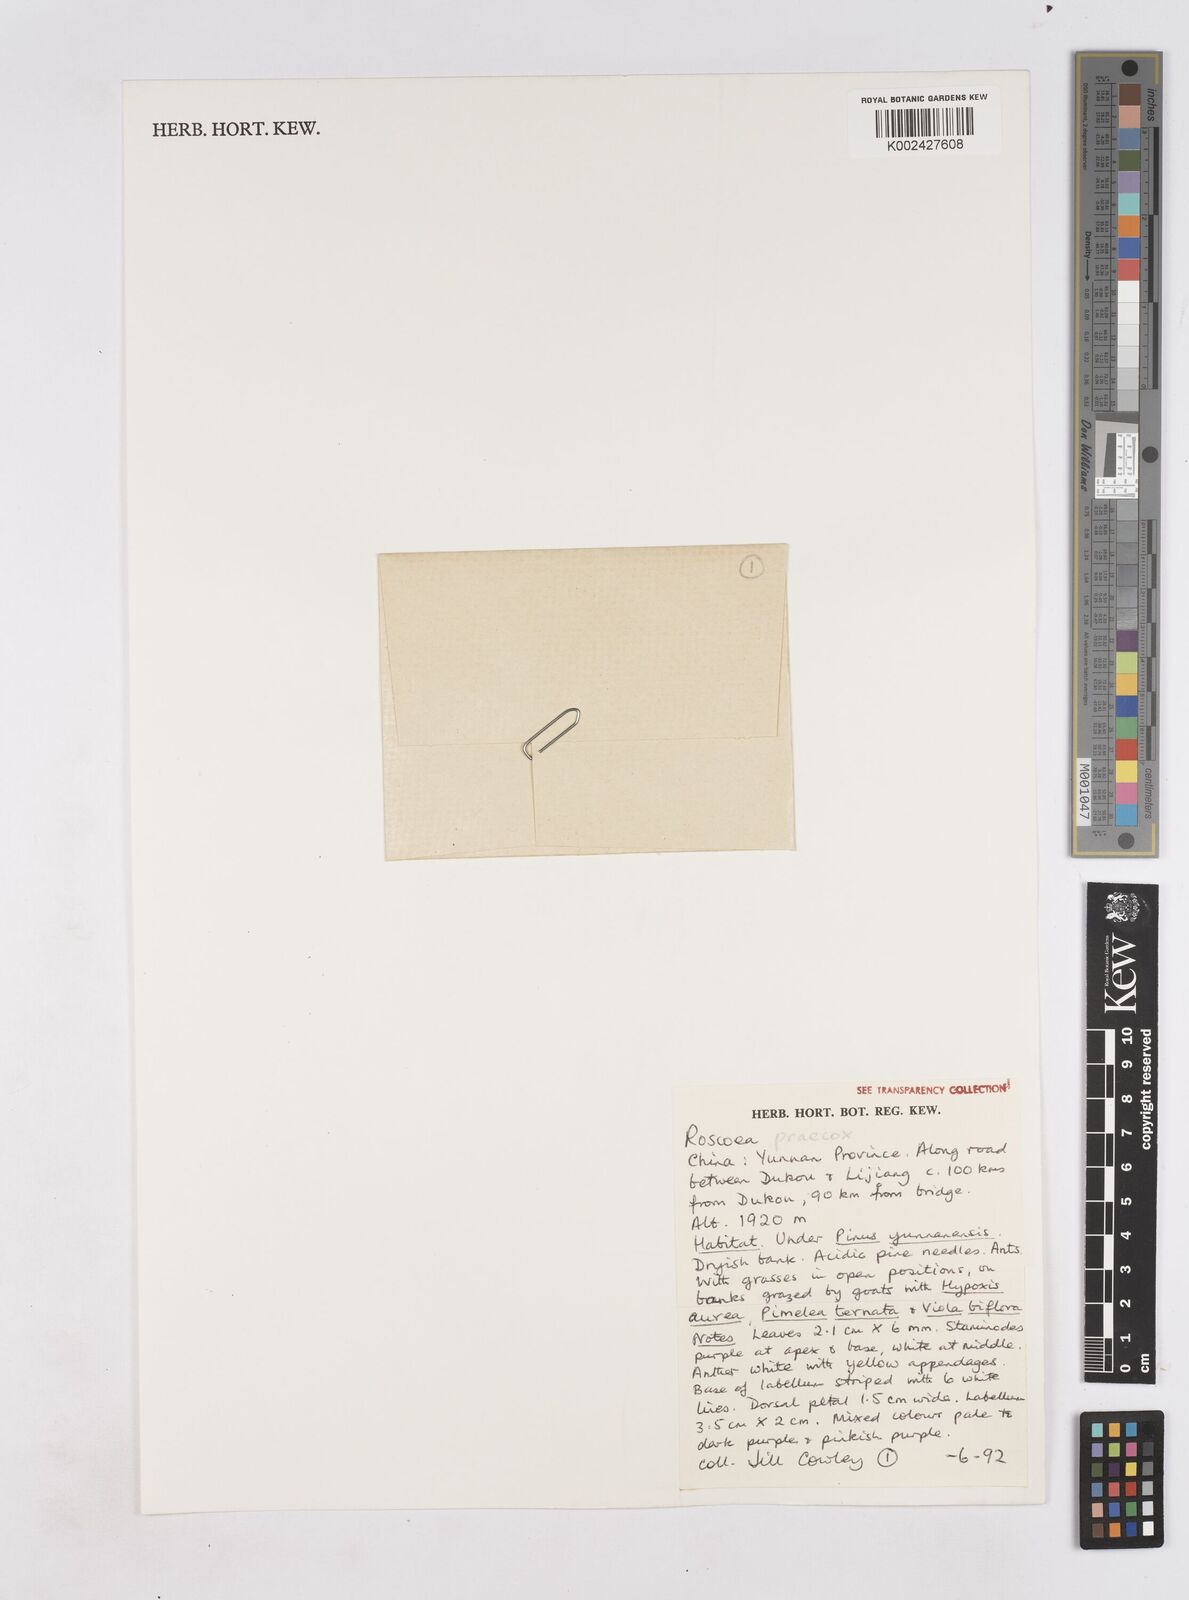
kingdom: Plantae
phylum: Tracheophyta
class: Liliopsida
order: Zingiberales
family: Zingiberaceae
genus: Roscoea
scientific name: Roscoea praecox
